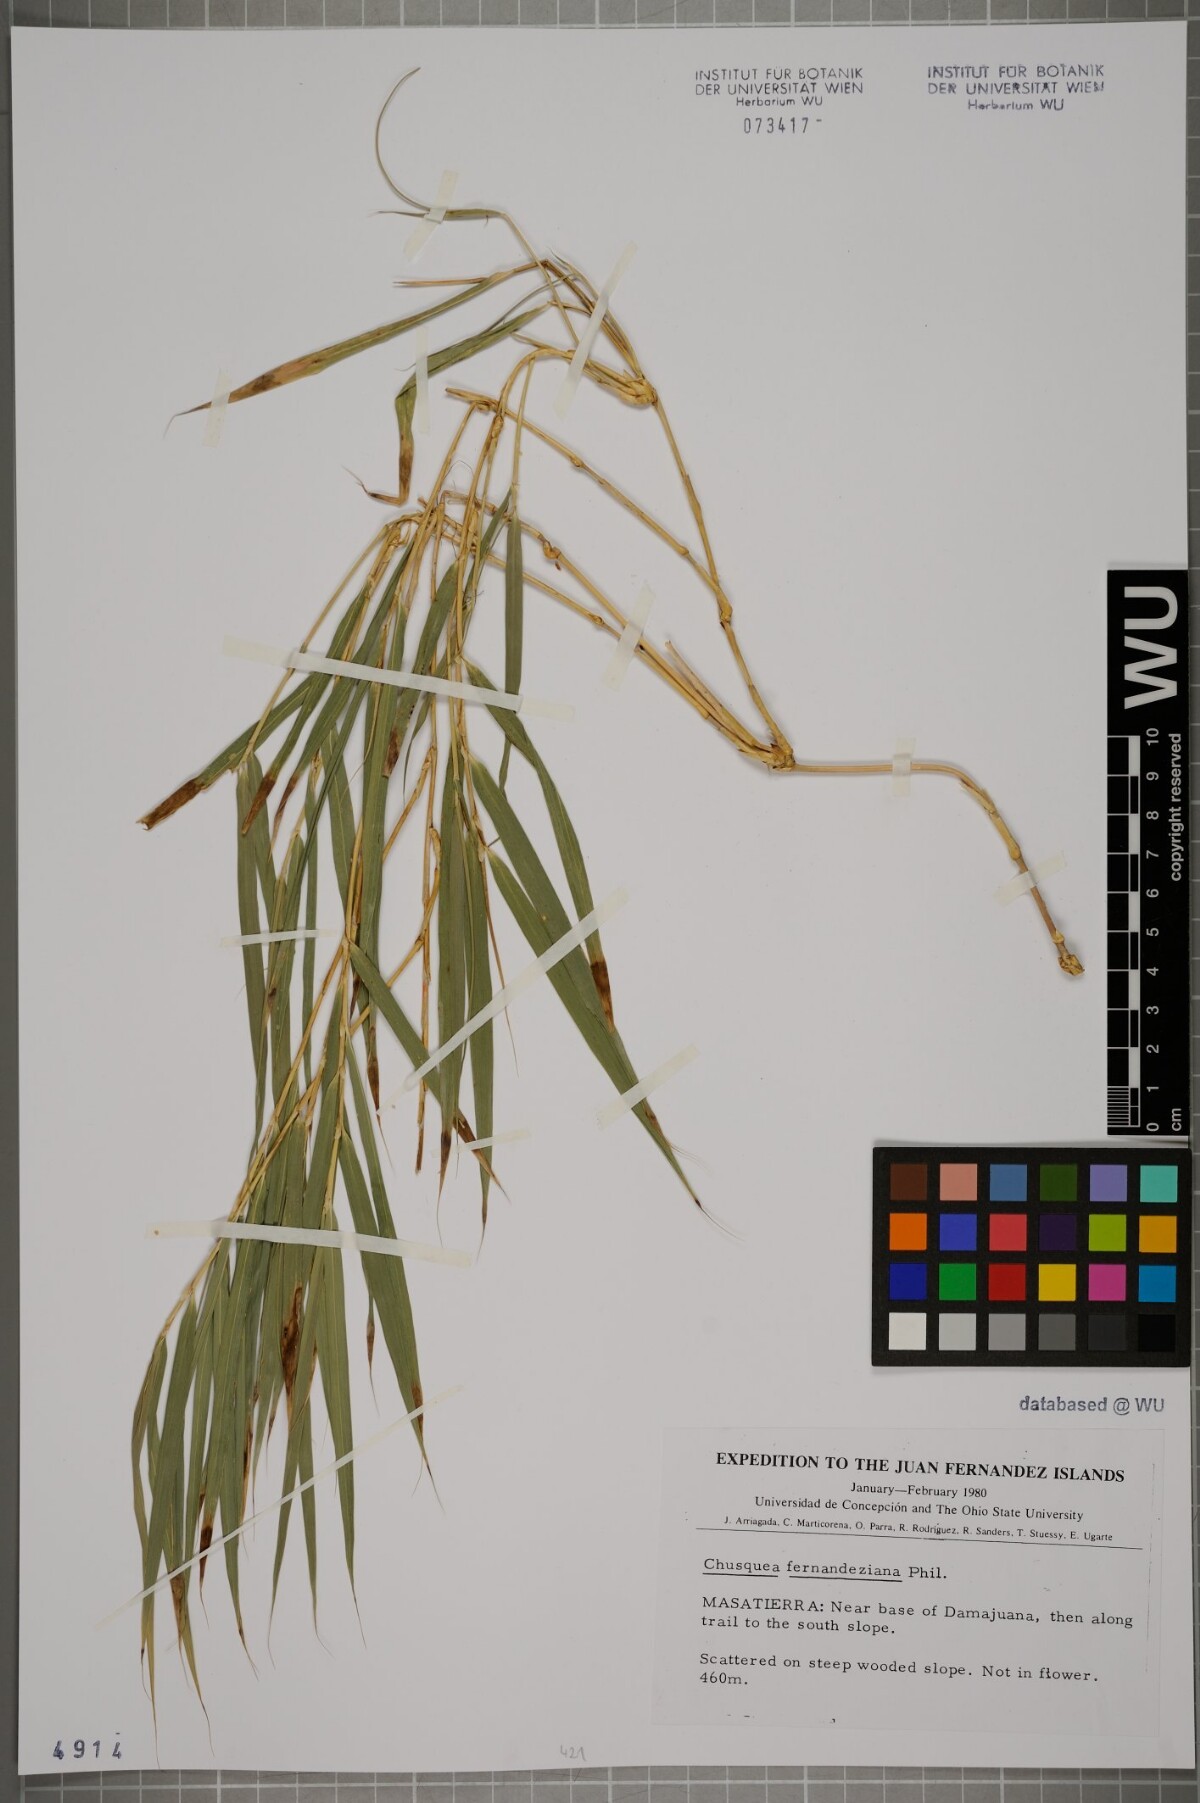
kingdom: Plantae
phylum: Tracheophyta
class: Liliopsida
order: Poales
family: Poaceae
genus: Chusquea
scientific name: Chusquea fernandeziana
